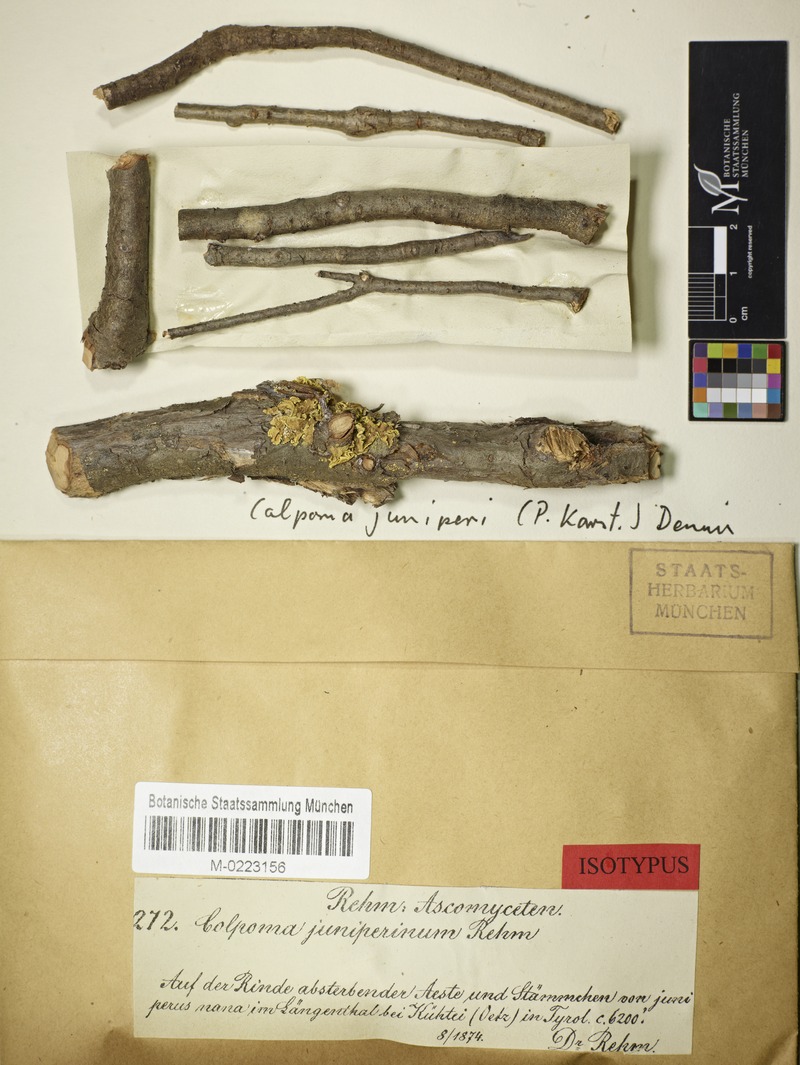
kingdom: Fungi
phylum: Ascomycota
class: Leotiomycetes
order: Rhytismatales
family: Rhytismataceae
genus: Colpoma
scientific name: Colpoma juniperi
